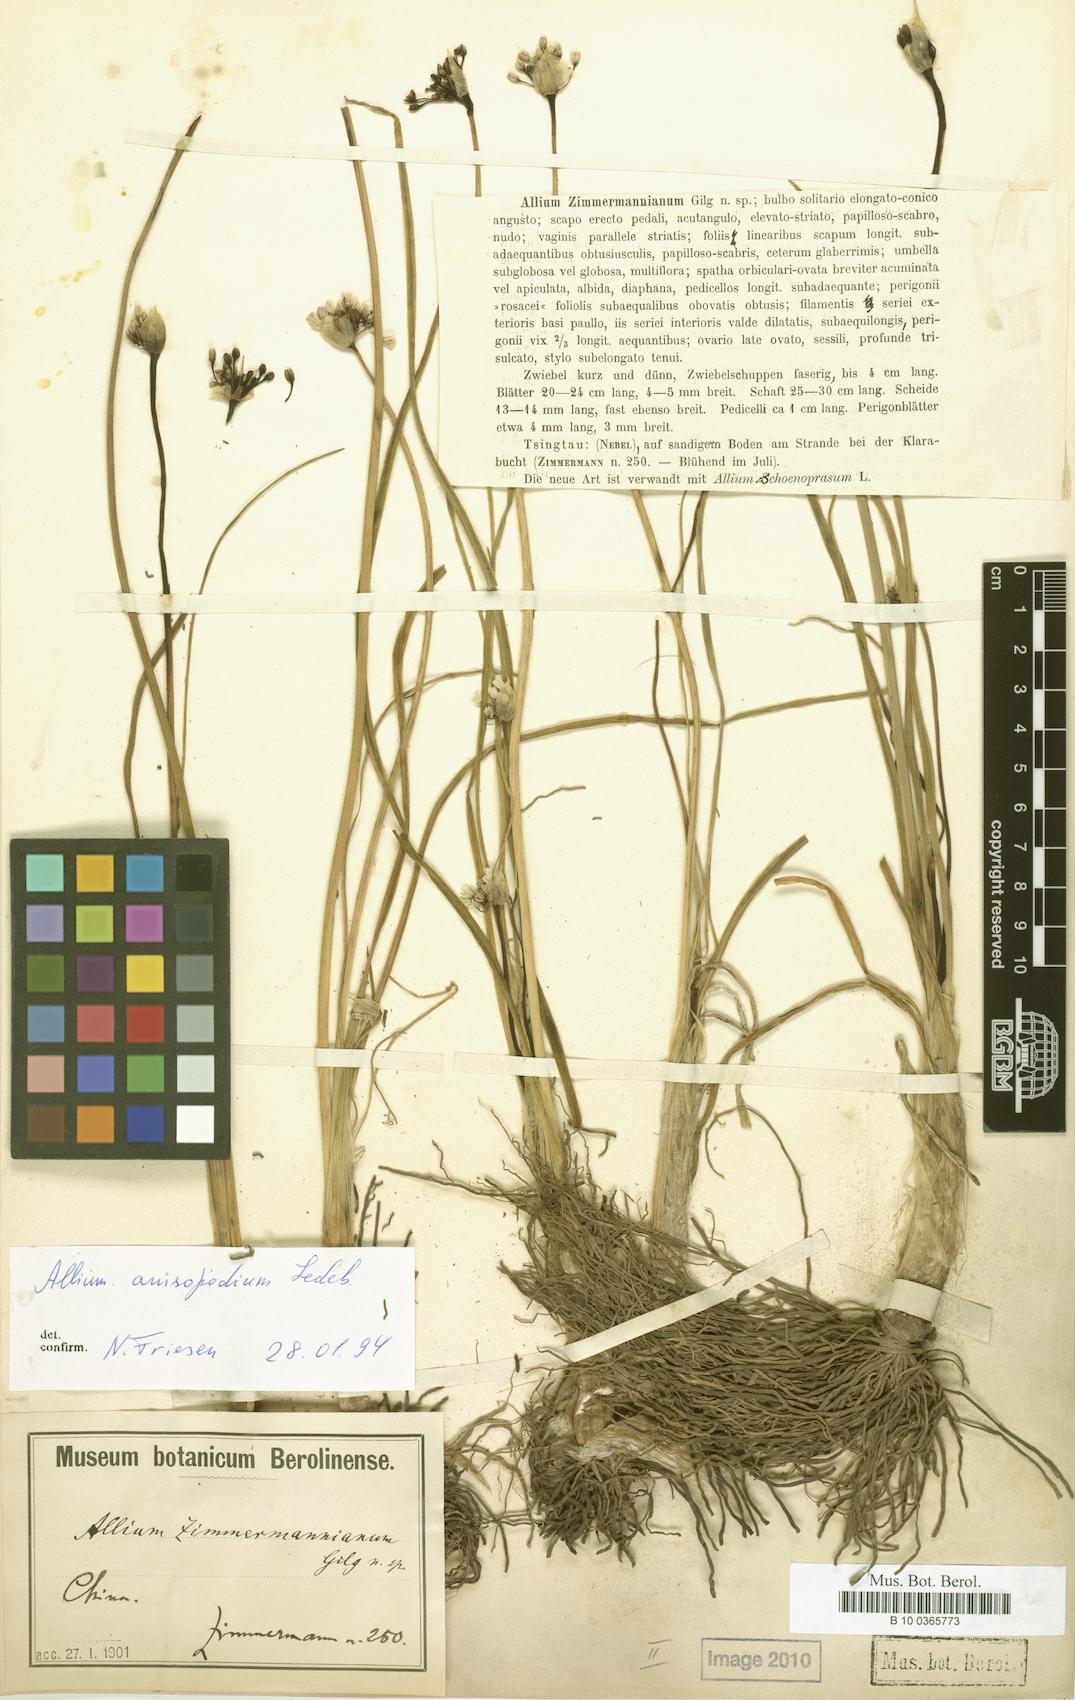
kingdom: Plantae
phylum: Tracheophyta
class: Liliopsida
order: Asparagales
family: Amaryllidaceae
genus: Allium
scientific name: Allium anisopodium
